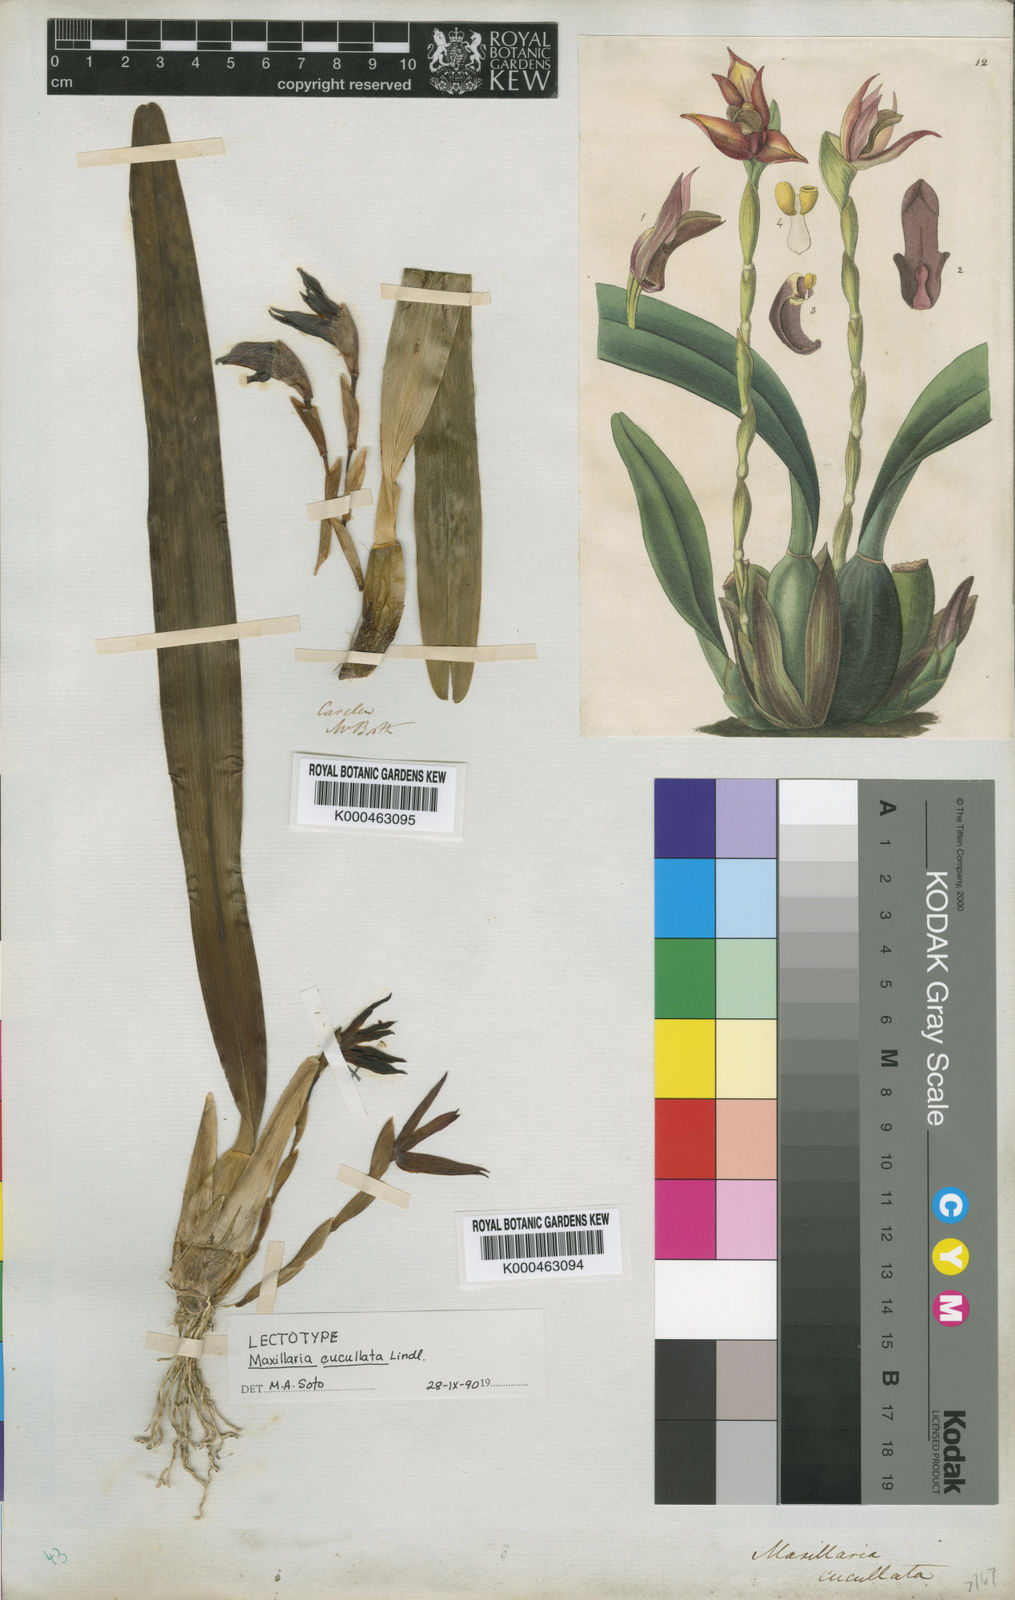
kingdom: Plantae
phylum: Tracheophyta
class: Liliopsida
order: Asparagales
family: Orchidaceae
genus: Maxillaria
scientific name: Maxillaria cucullata
